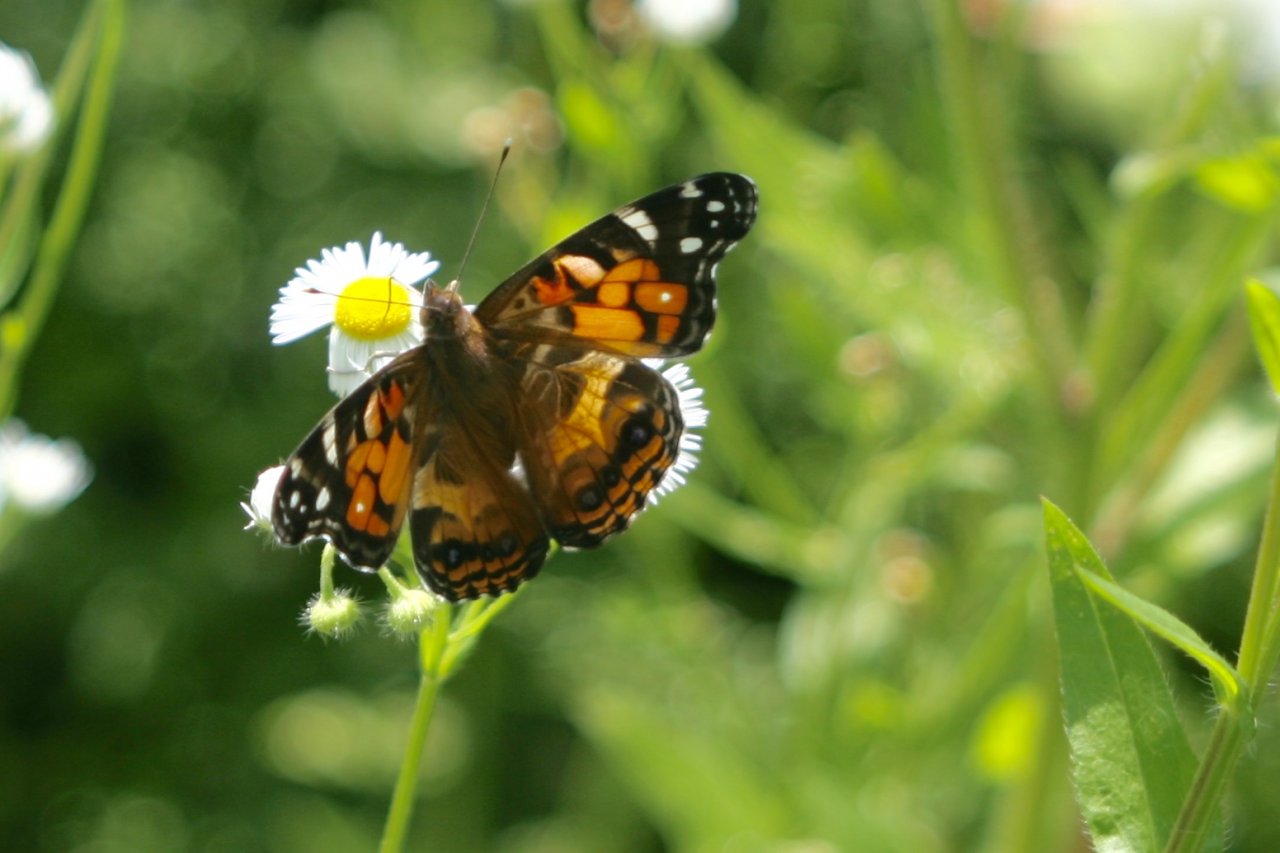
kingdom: Animalia
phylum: Arthropoda
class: Insecta
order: Lepidoptera
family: Nymphalidae
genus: Vanessa
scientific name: Vanessa virginiensis
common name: American Lady
